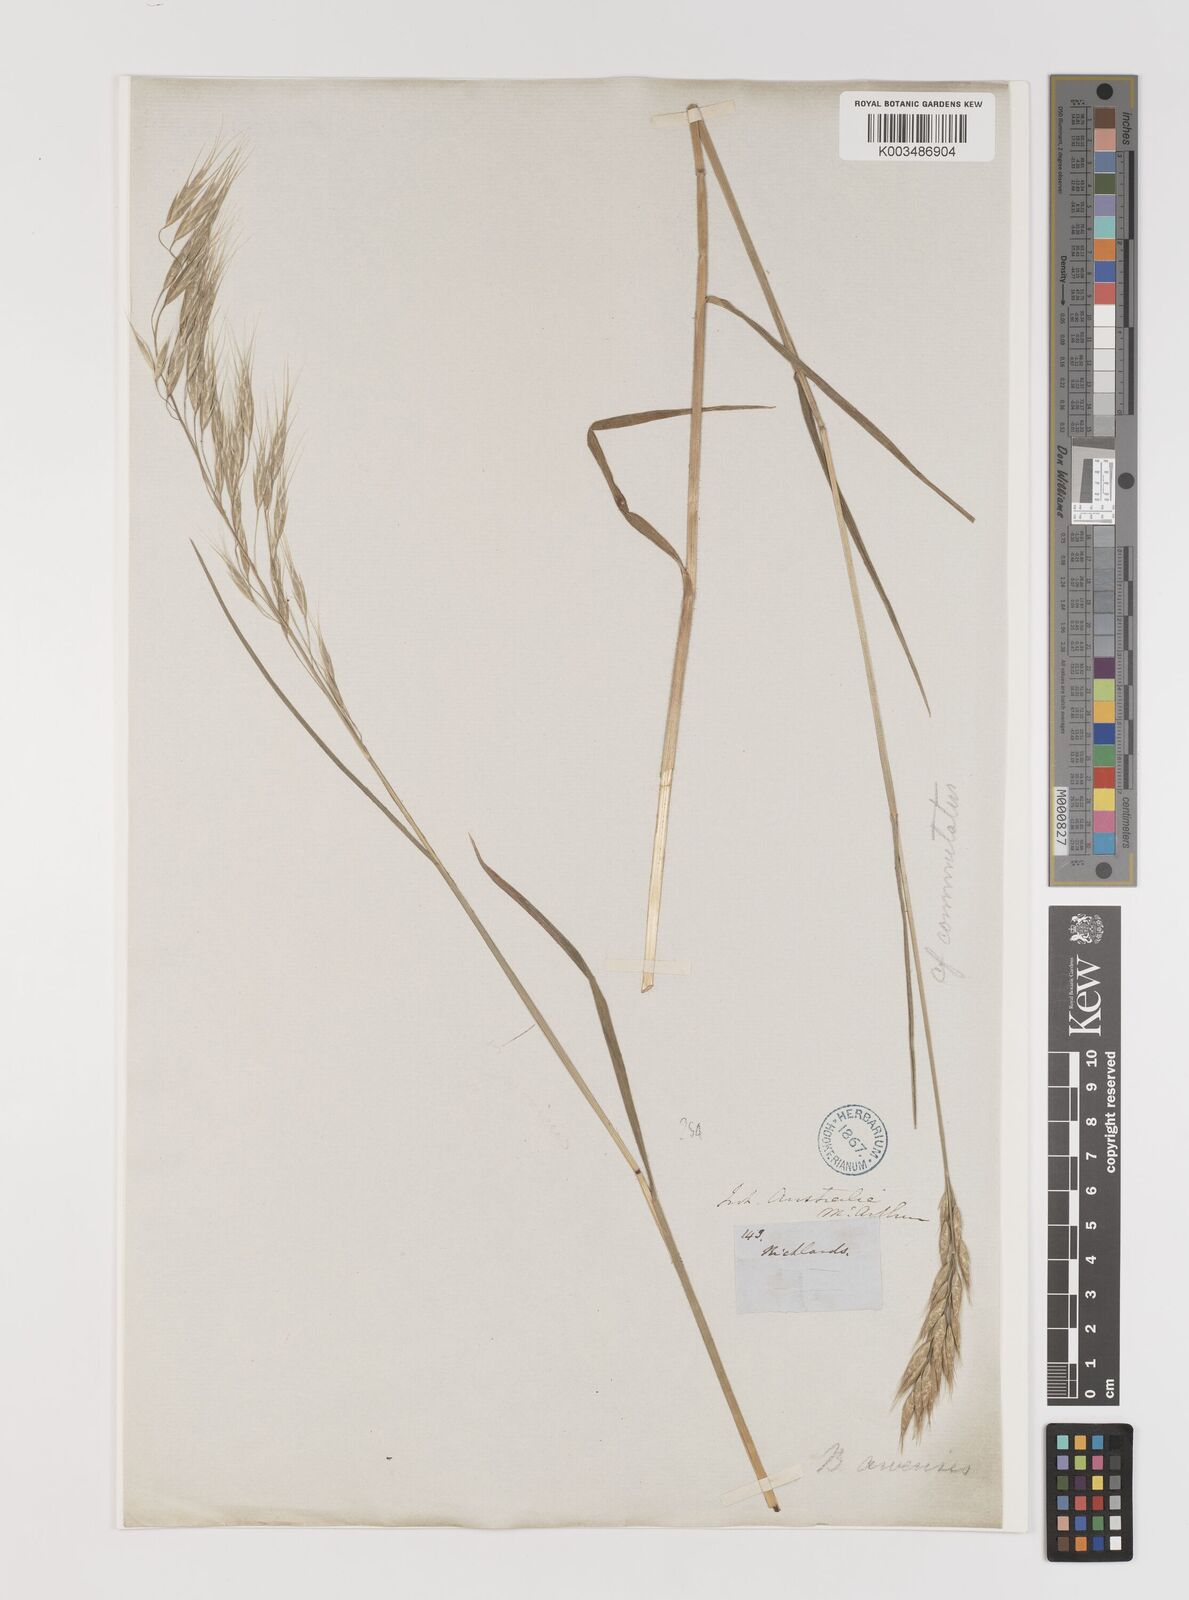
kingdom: Plantae
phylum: Tracheophyta
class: Liliopsida
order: Poales
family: Poaceae
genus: Bromus
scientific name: Bromus arenarius
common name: Australian brome
